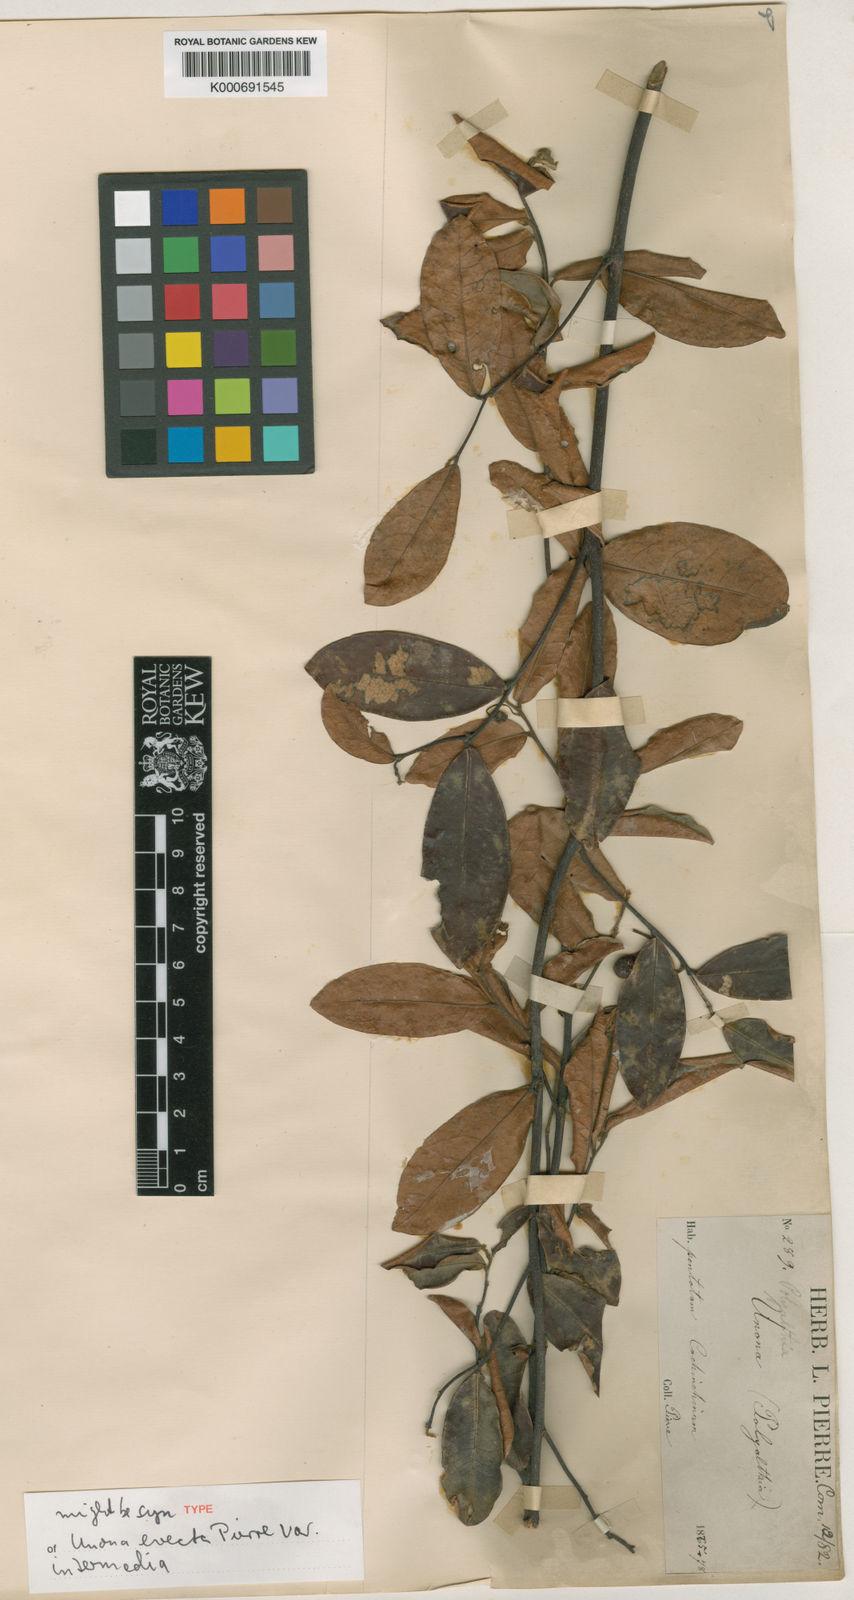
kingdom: Plantae
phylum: Tracheophyta
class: Magnoliopsida
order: Magnoliales
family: Annonaceae
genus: Polyalthia
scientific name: Polyalthia
